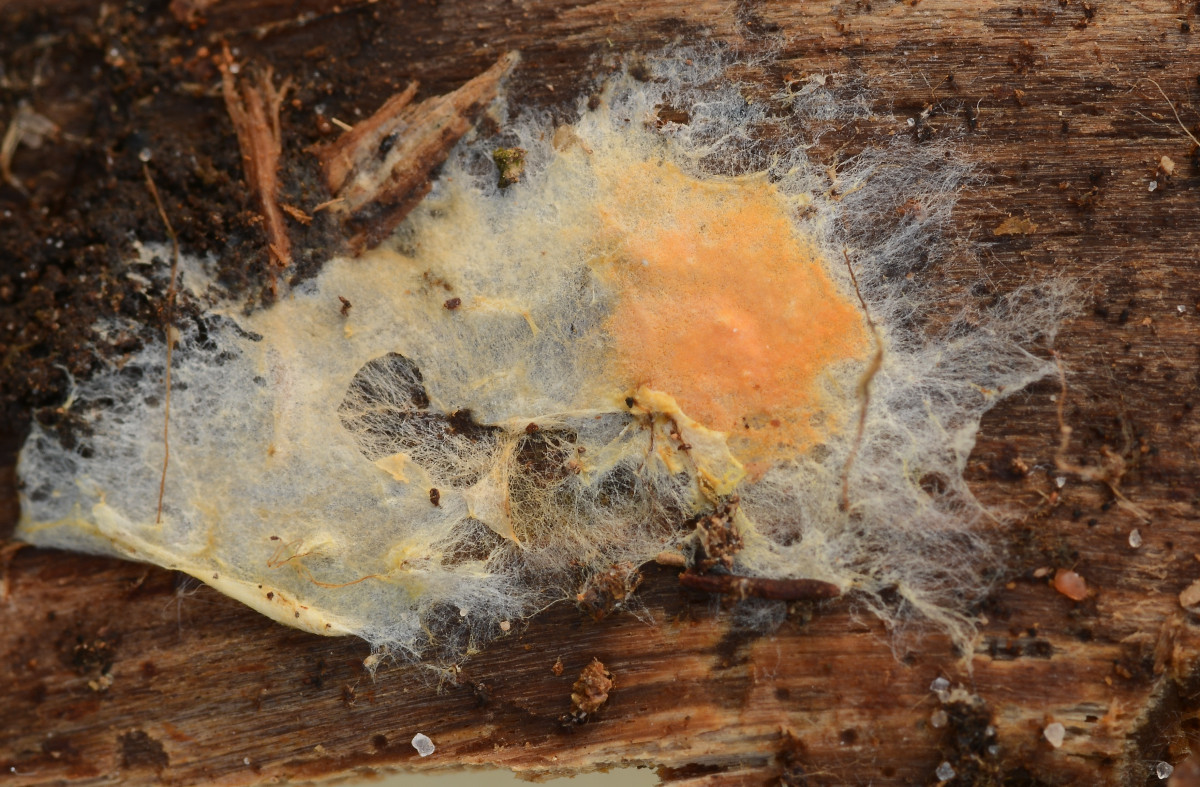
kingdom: Fungi
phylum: Basidiomycota
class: Agaricomycetes
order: Boletales
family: Hygrophoropsidaceae
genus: Leucogyrophana
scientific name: Leucogyrophana mollusca
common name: blød hussvamp
